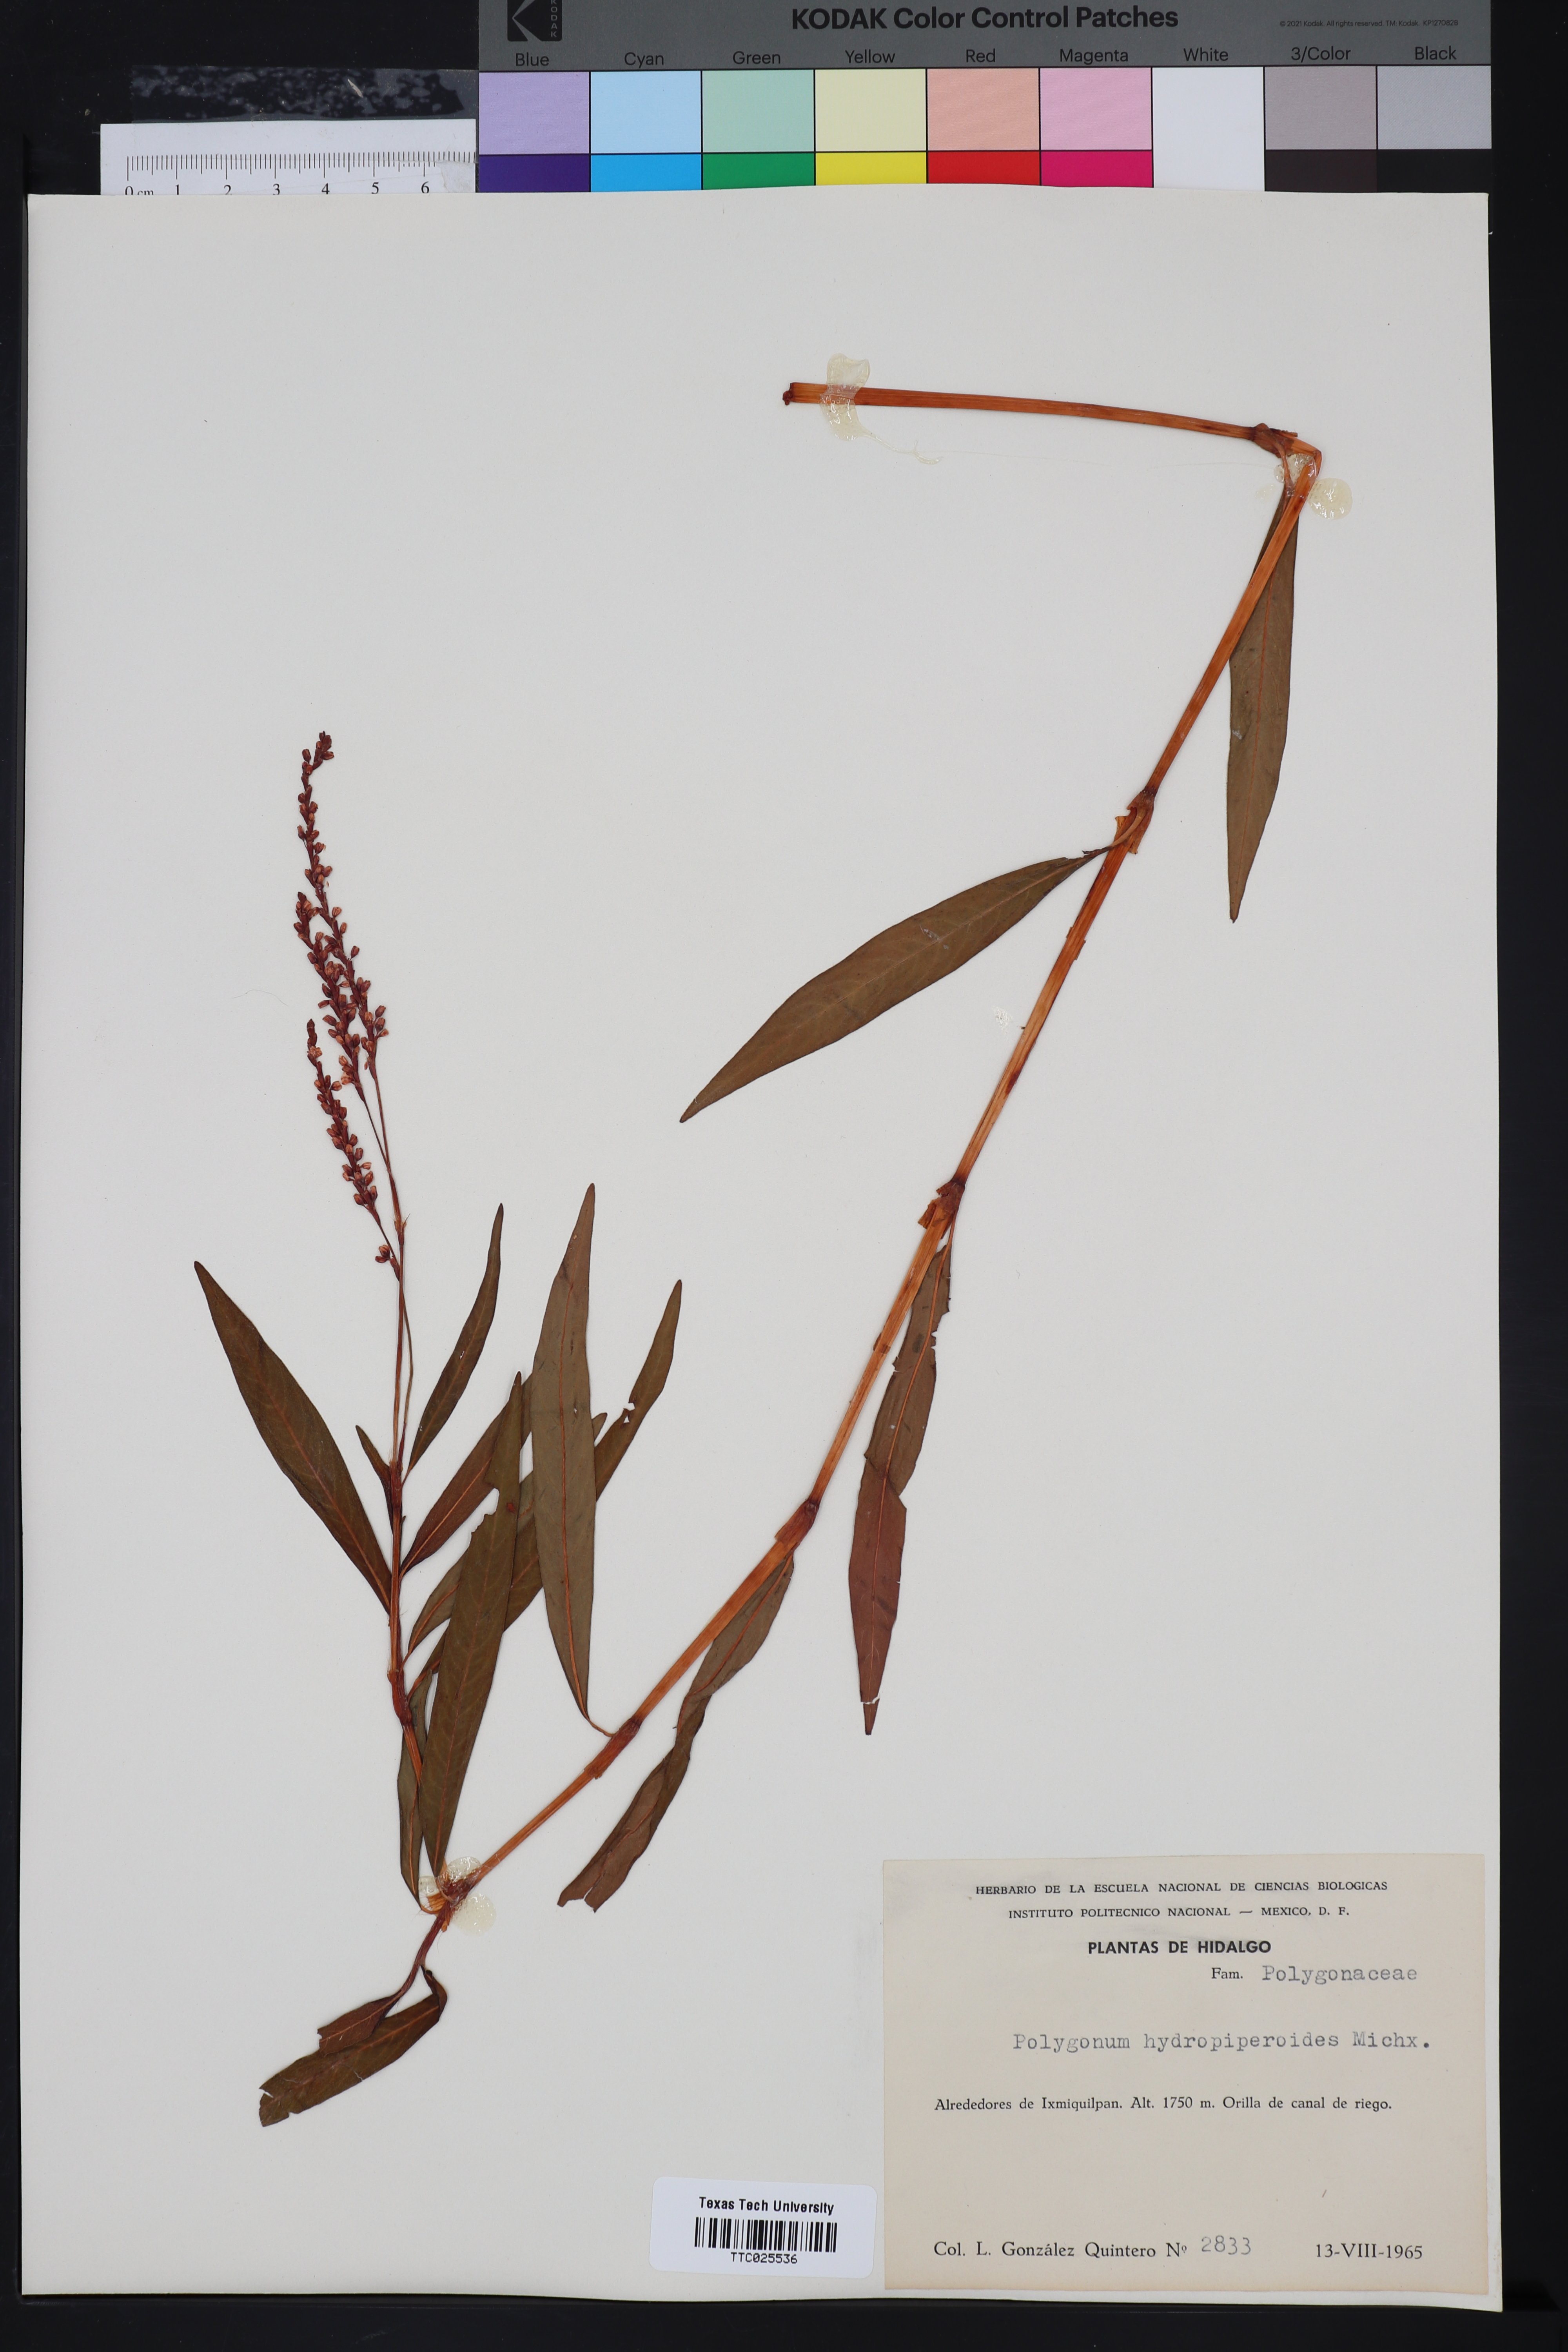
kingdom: Plantae
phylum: Tracheophyta
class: Magnoliopsida
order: Caryophyllales
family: Polygonaceae
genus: Persicaria
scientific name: Persicaria hydropiperoides
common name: Swamp smartweed
